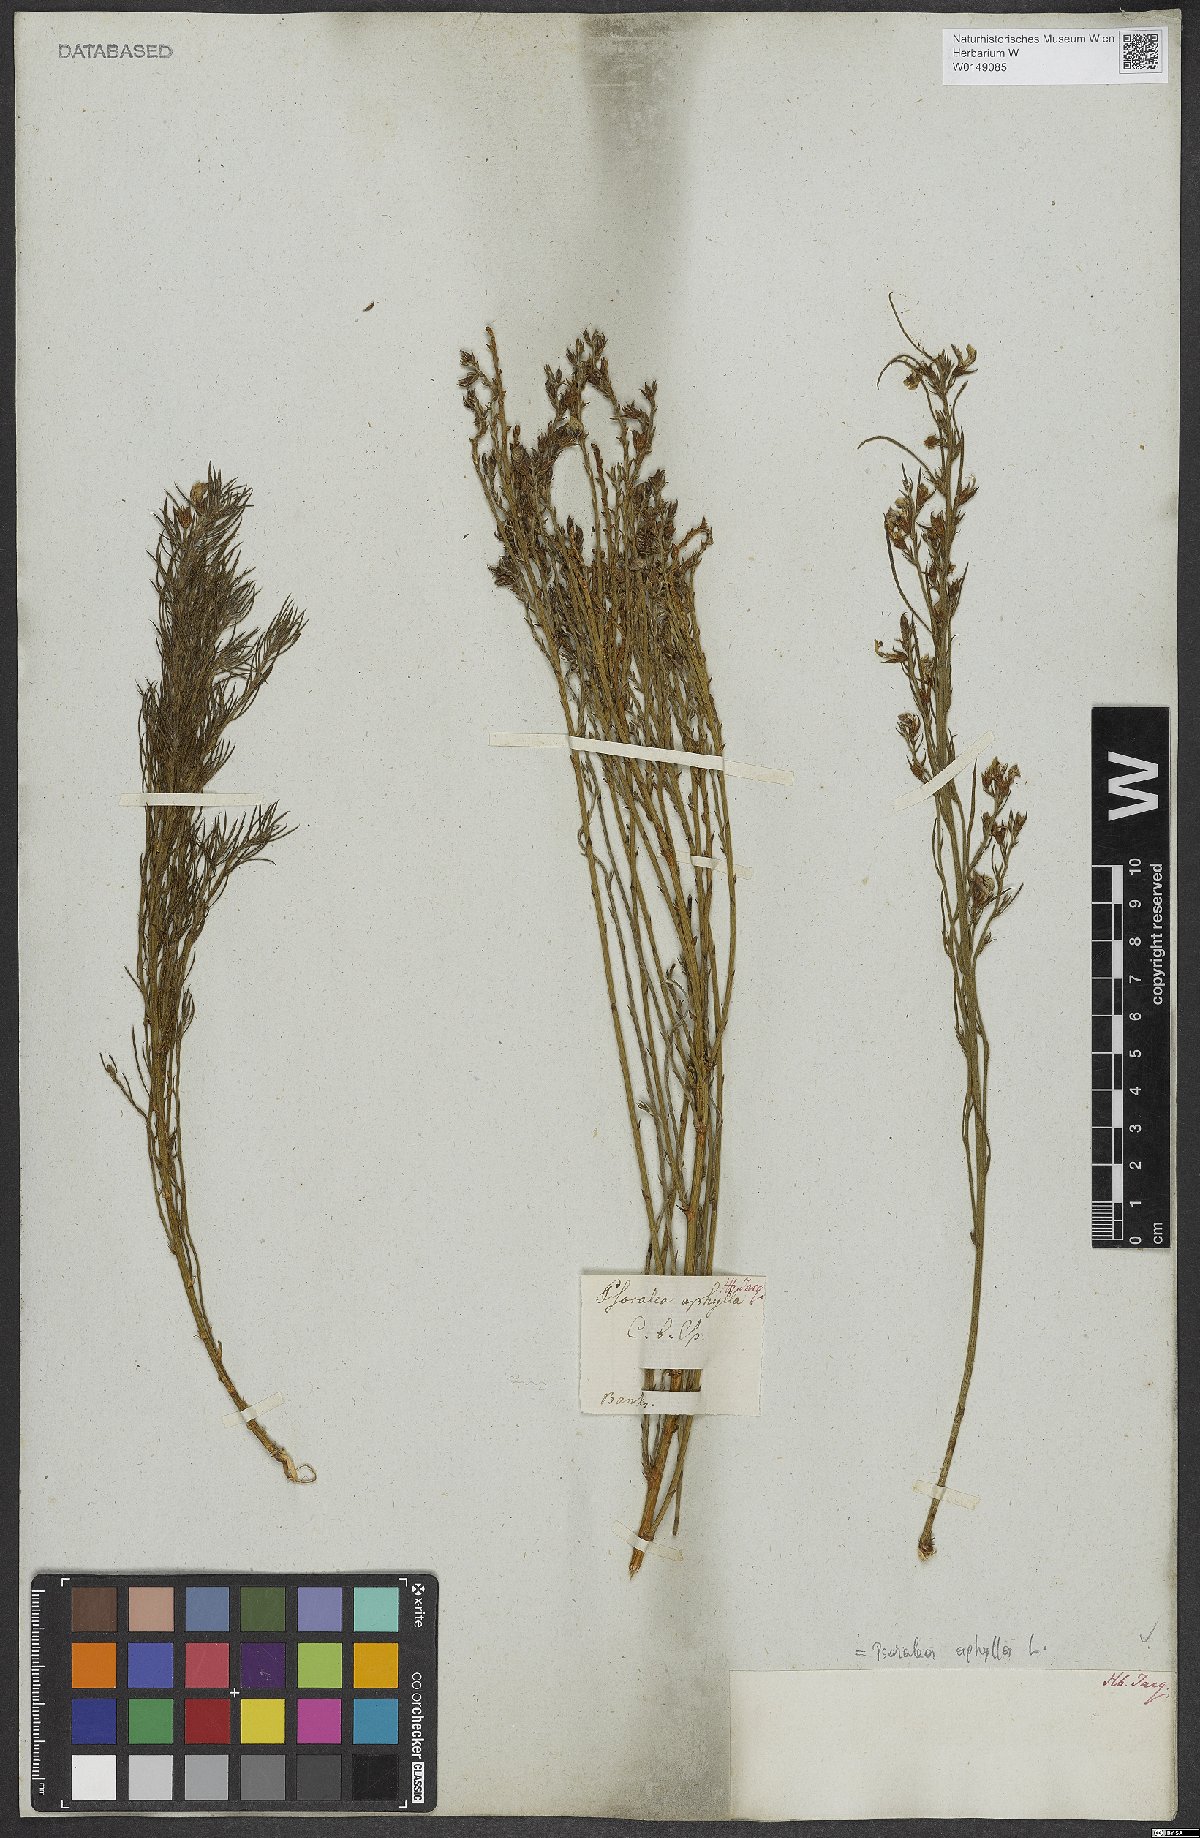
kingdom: Plantae
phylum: Tracheophyta
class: Magnoliopsida
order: Fabales
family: Fabaceae
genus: Psoralea
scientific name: Psoralea aphylla
